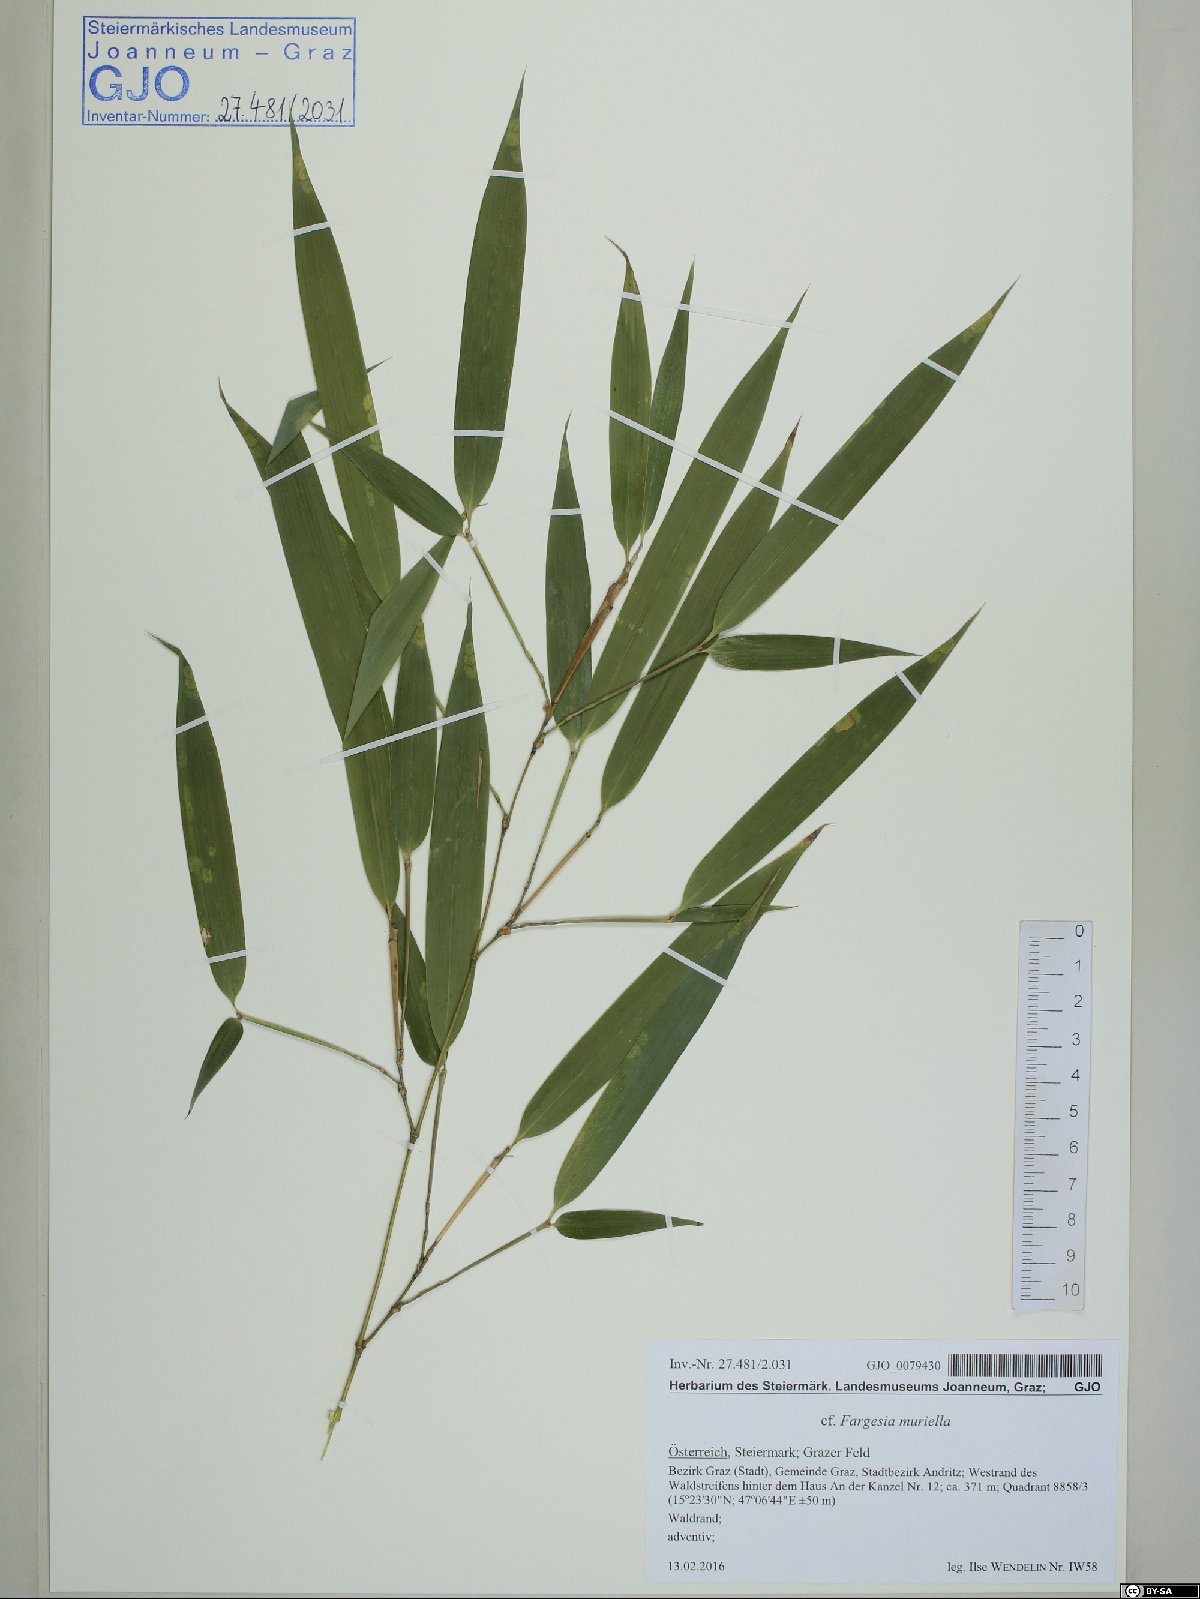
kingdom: Plantae
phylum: Tracheophyta
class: Liliopsida
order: Poales
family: Poaceae
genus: Fargesia
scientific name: Fargesia murielae
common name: Umbrella bamboo
